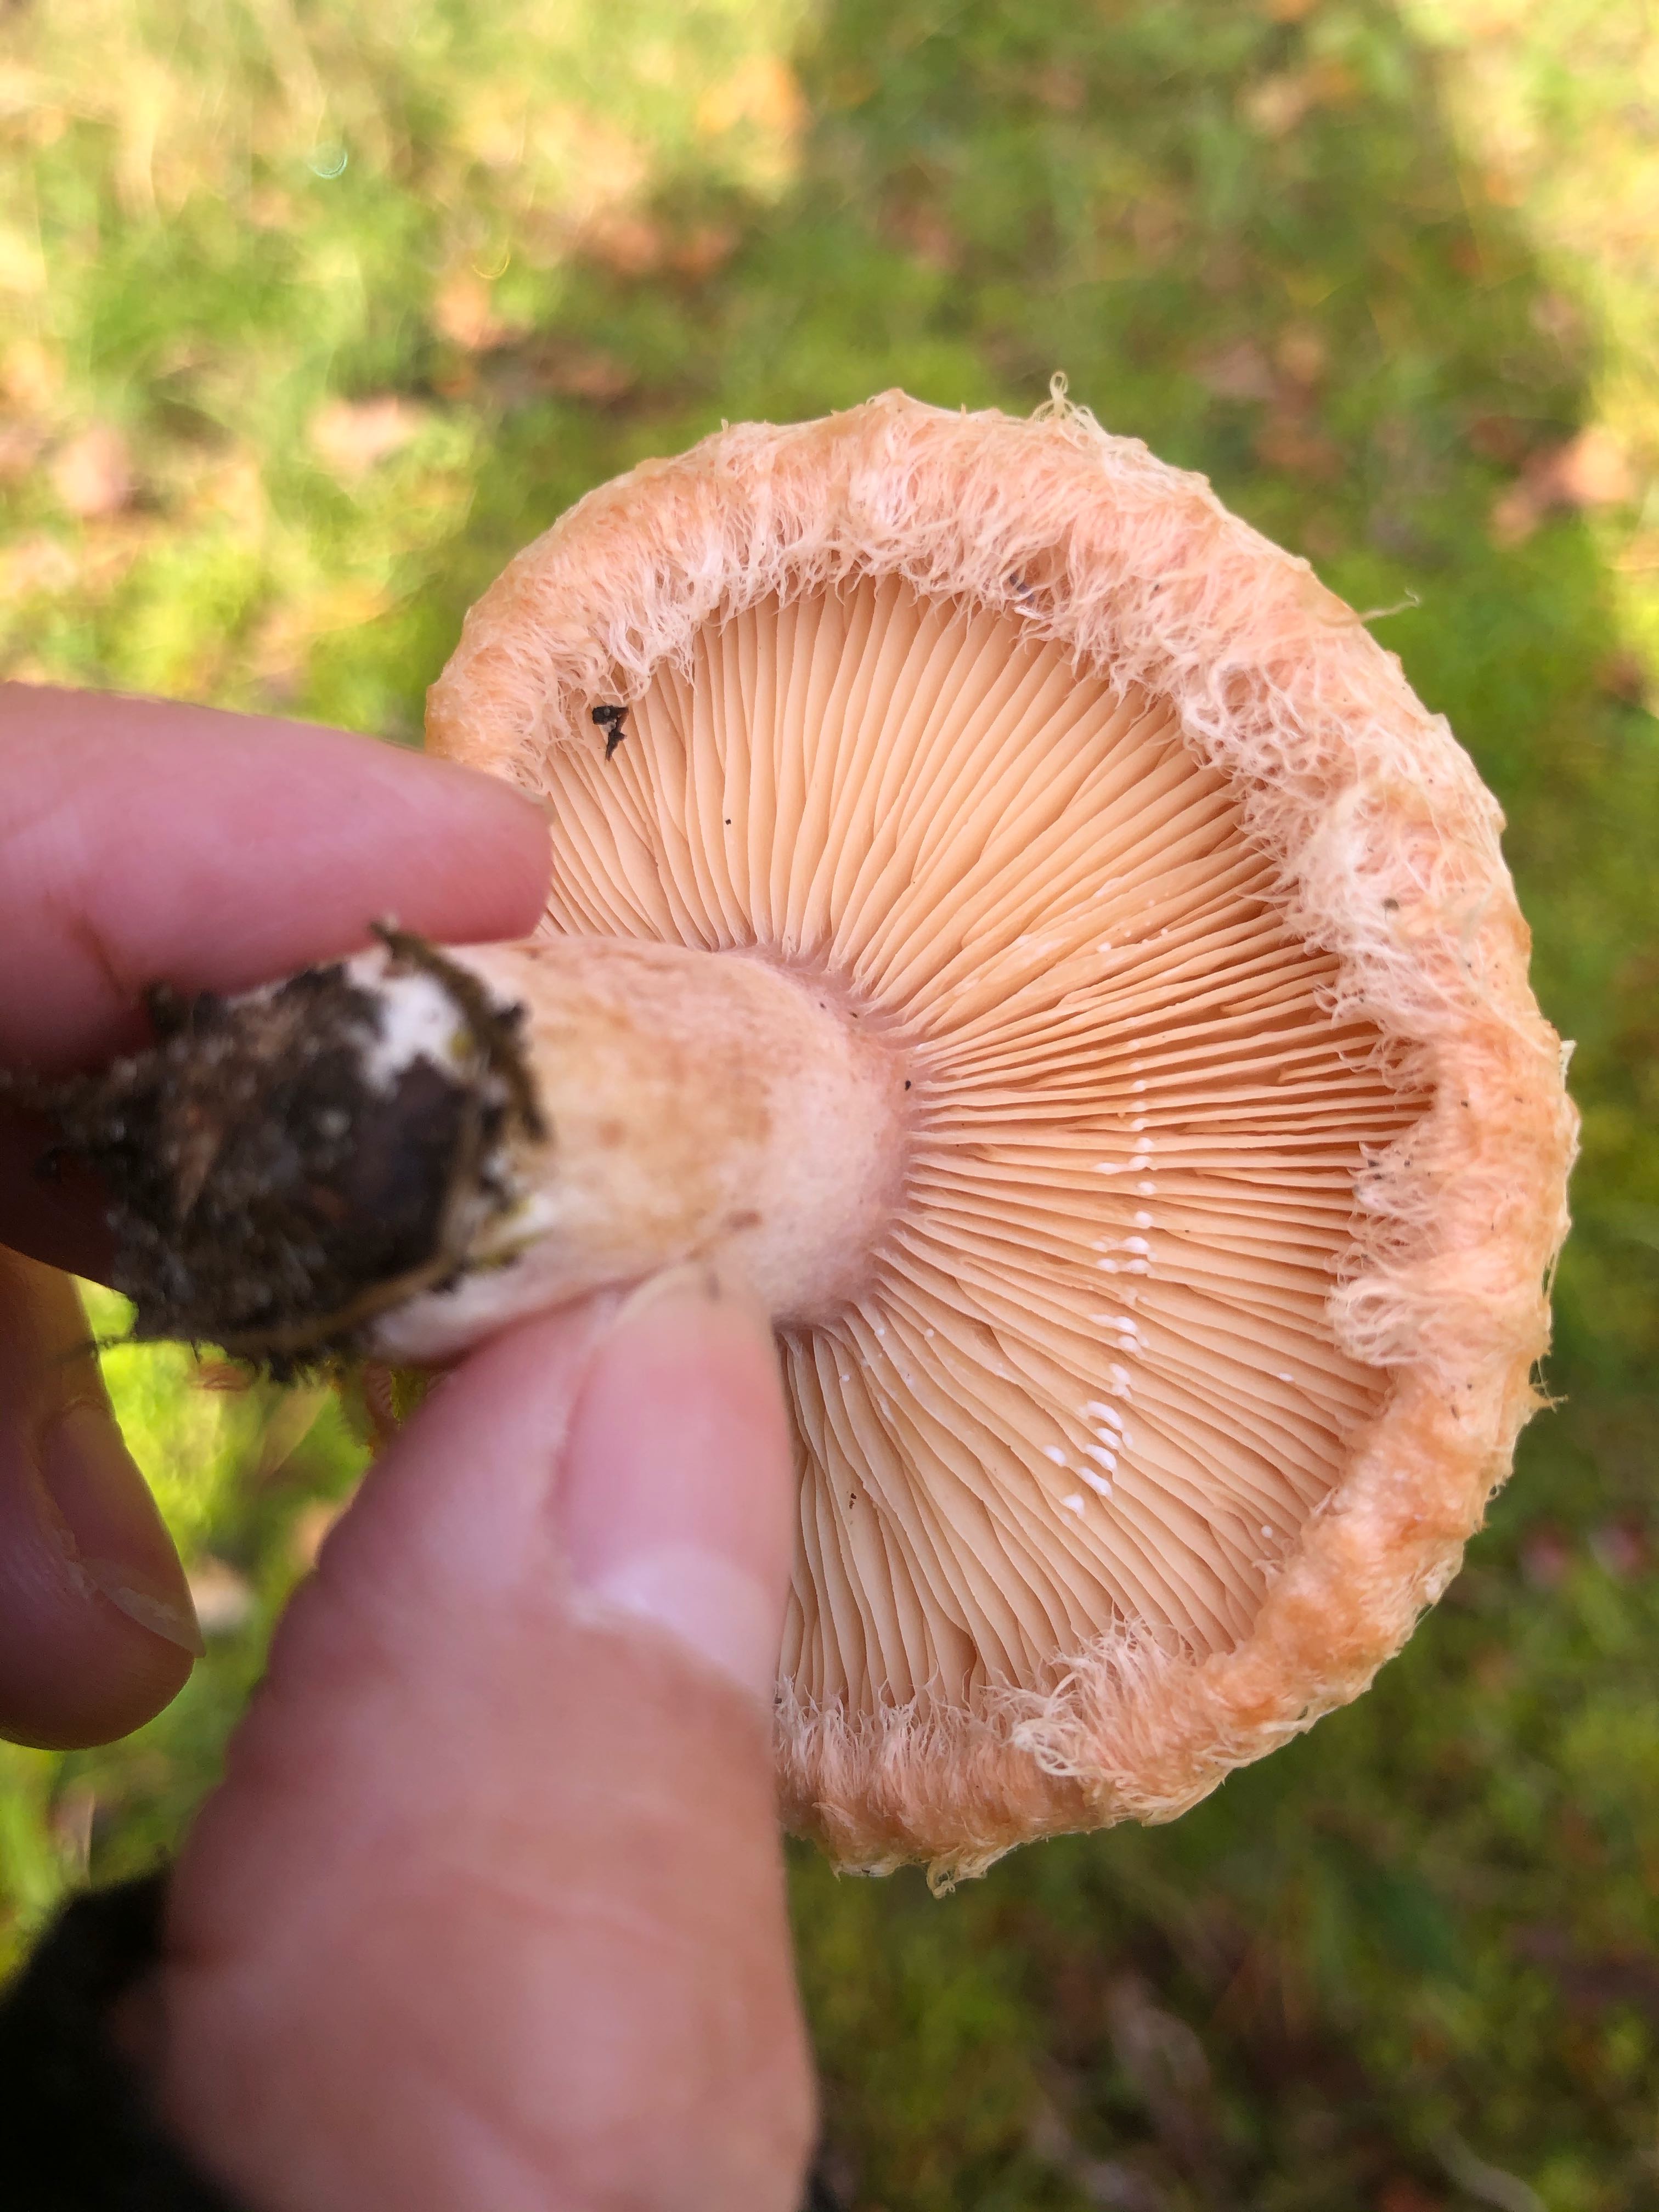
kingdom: Fungi
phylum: Basidiomycota
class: Agaricomycetes
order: Russulales
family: Russulaceae
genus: Lactarius
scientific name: Lactarius torminosus
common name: skægget mælkehat
